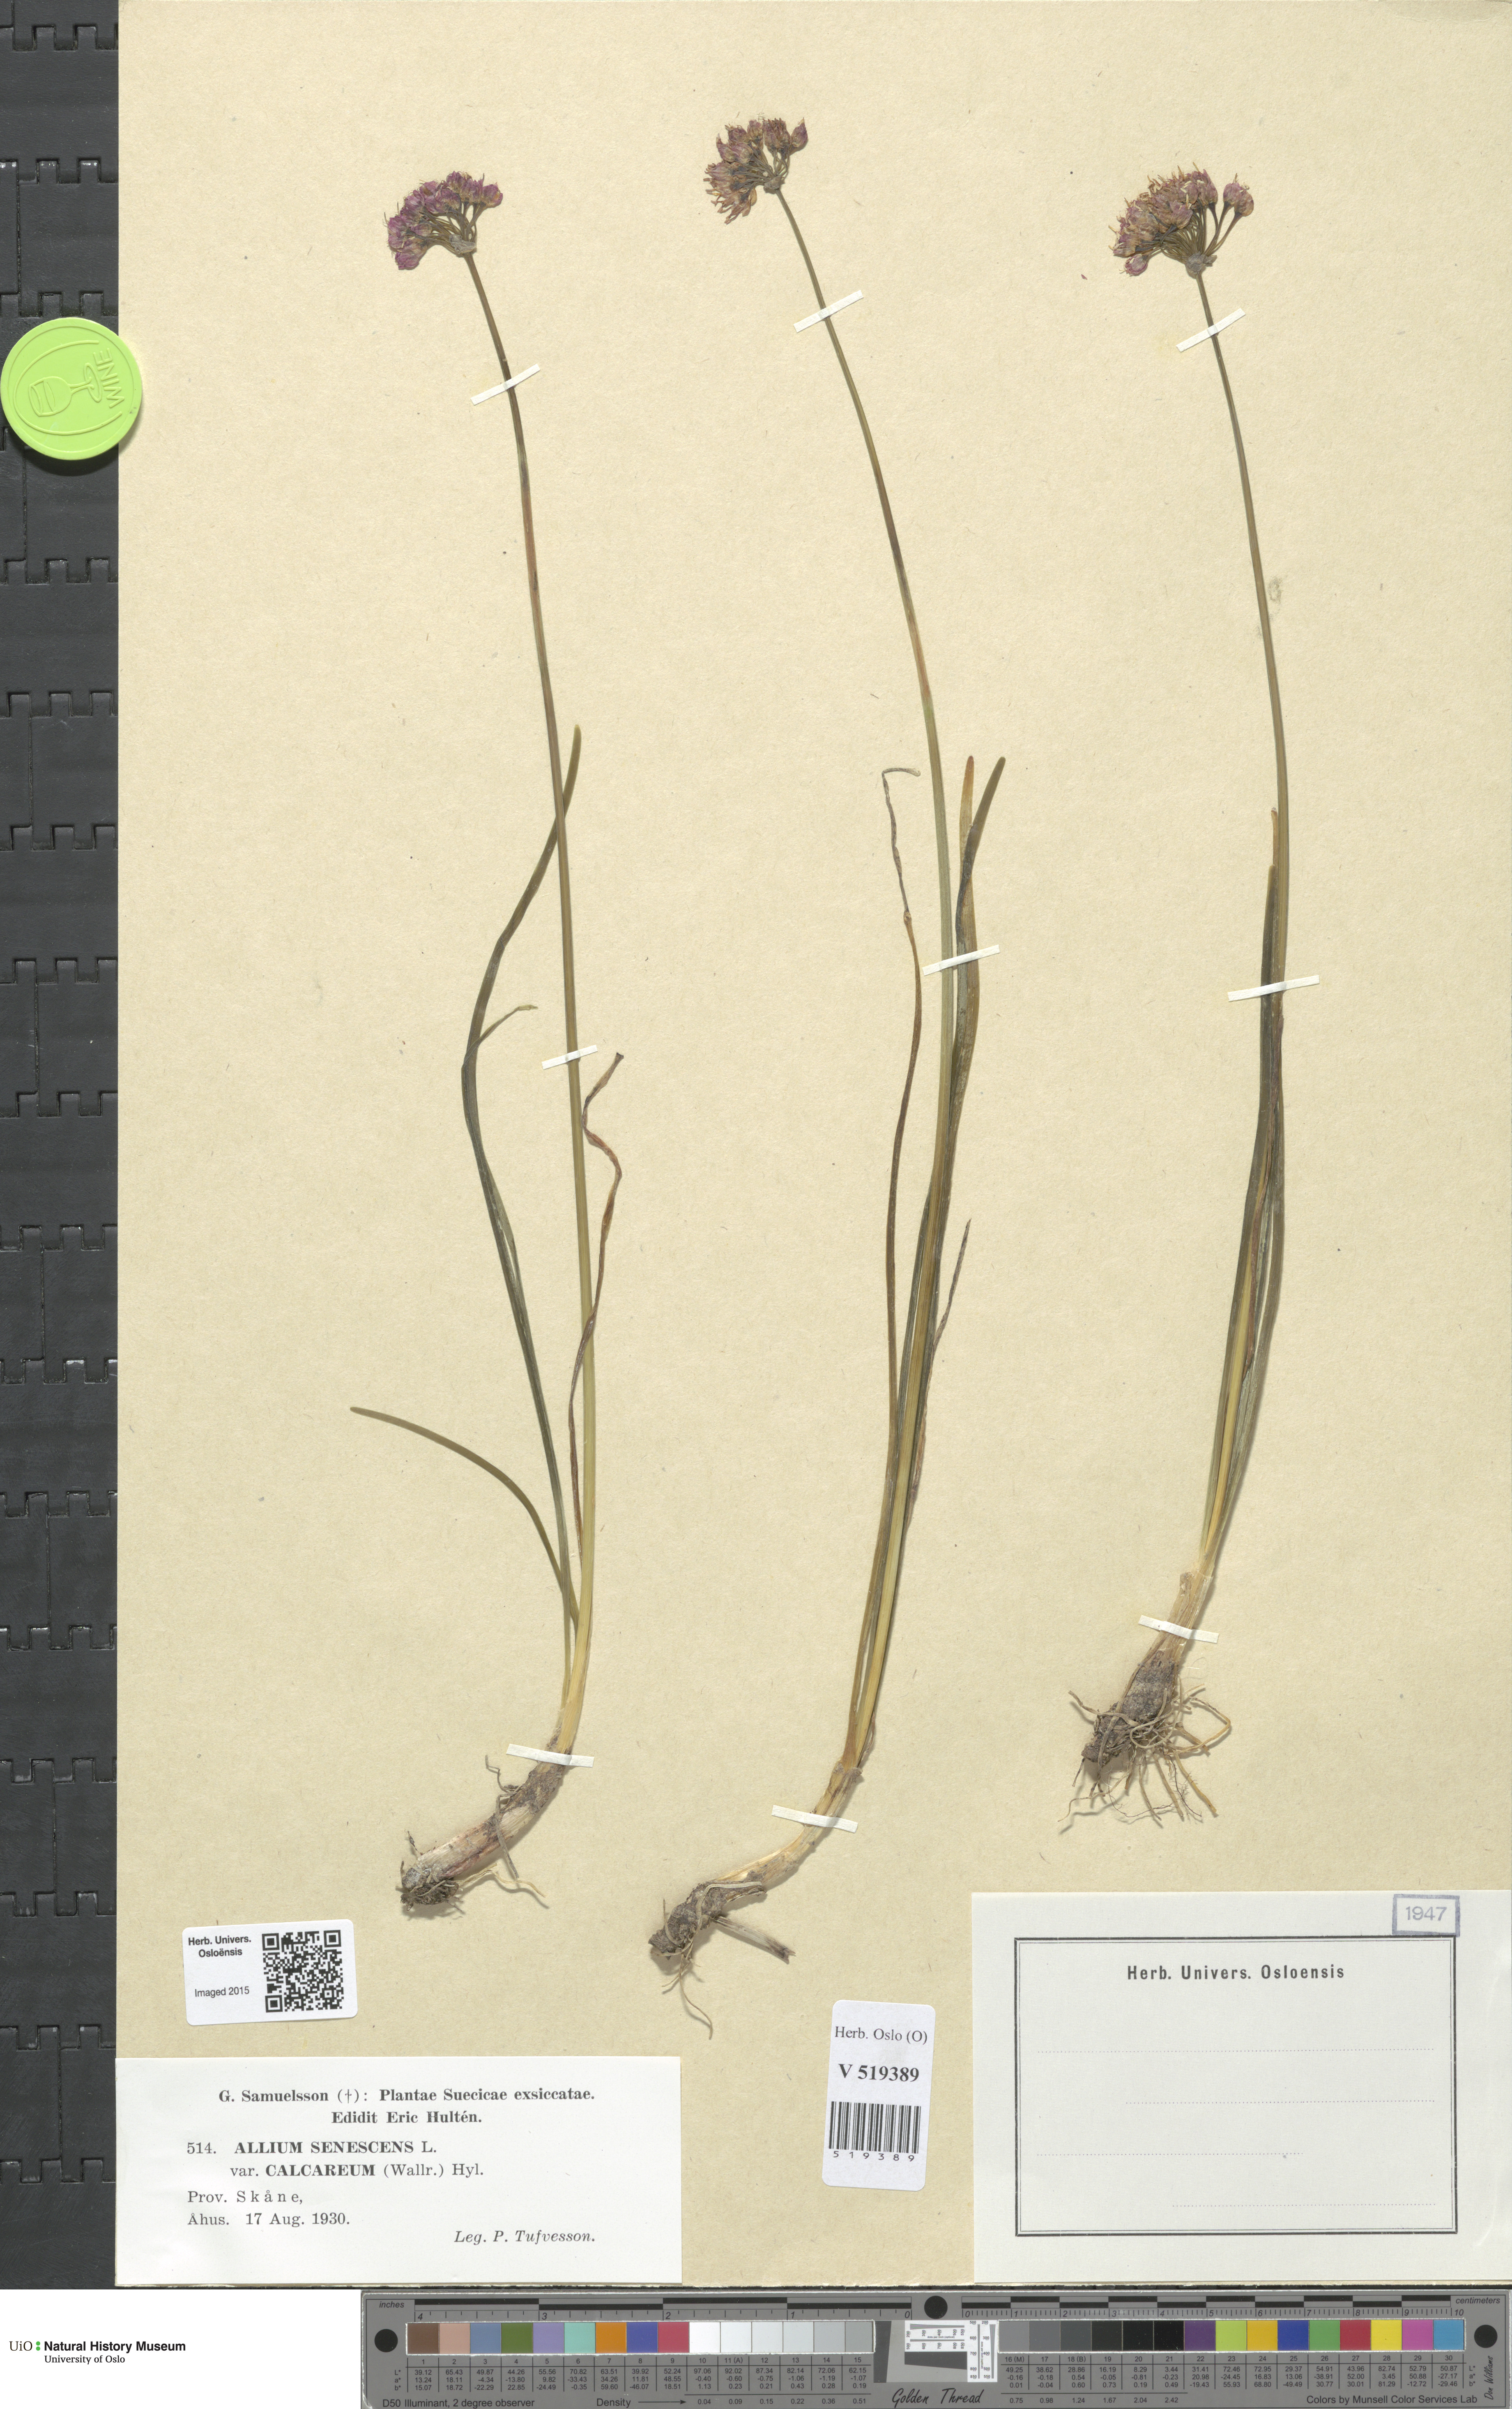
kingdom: Plantae
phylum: Tracheophyta
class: Liliopsida
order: Asparagales
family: Amaryllidaceae
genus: Allium
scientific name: Allium lusitanicum
